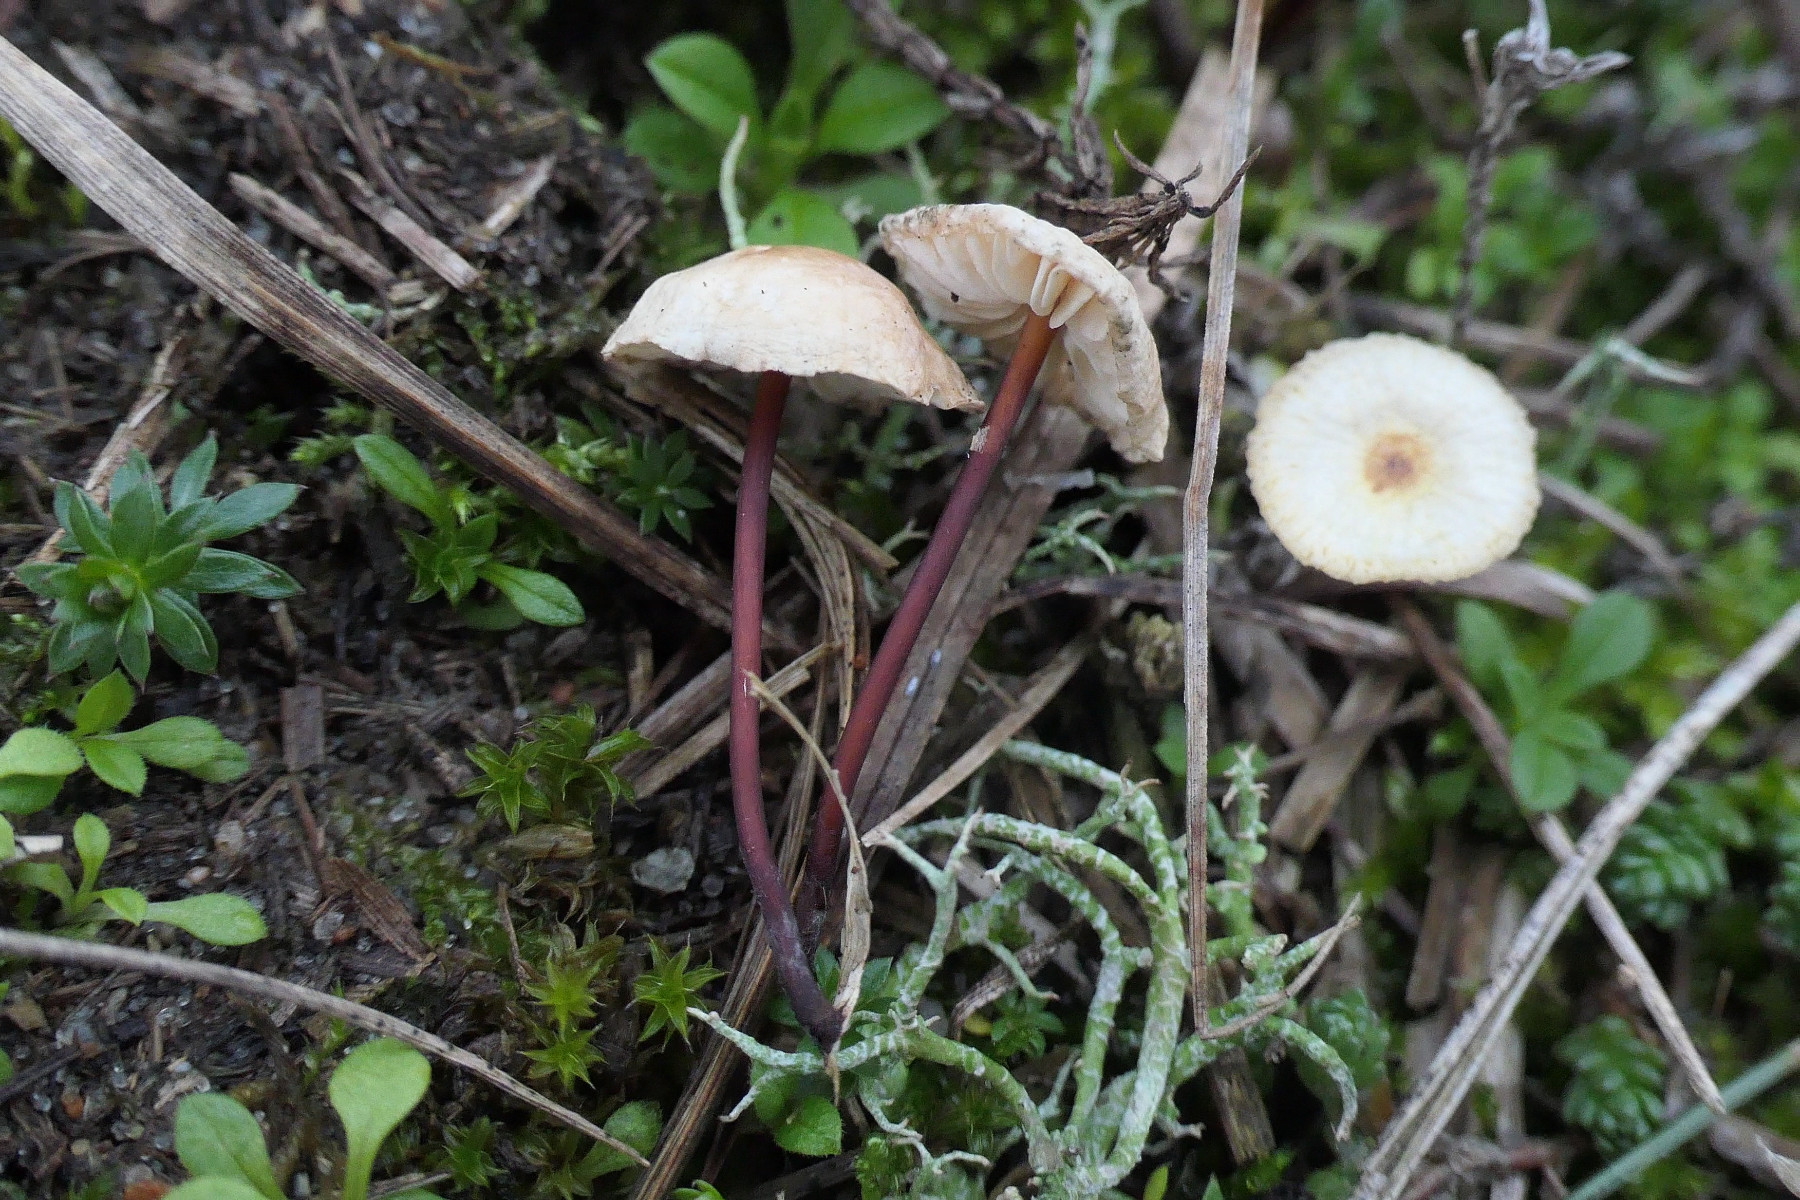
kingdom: Fungi
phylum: Basidiomycota
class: Agaricomycetes
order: Agaricales
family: Omphalotaceae
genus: Mycetinis
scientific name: Mycetinis scorodonius
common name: lille løghat
